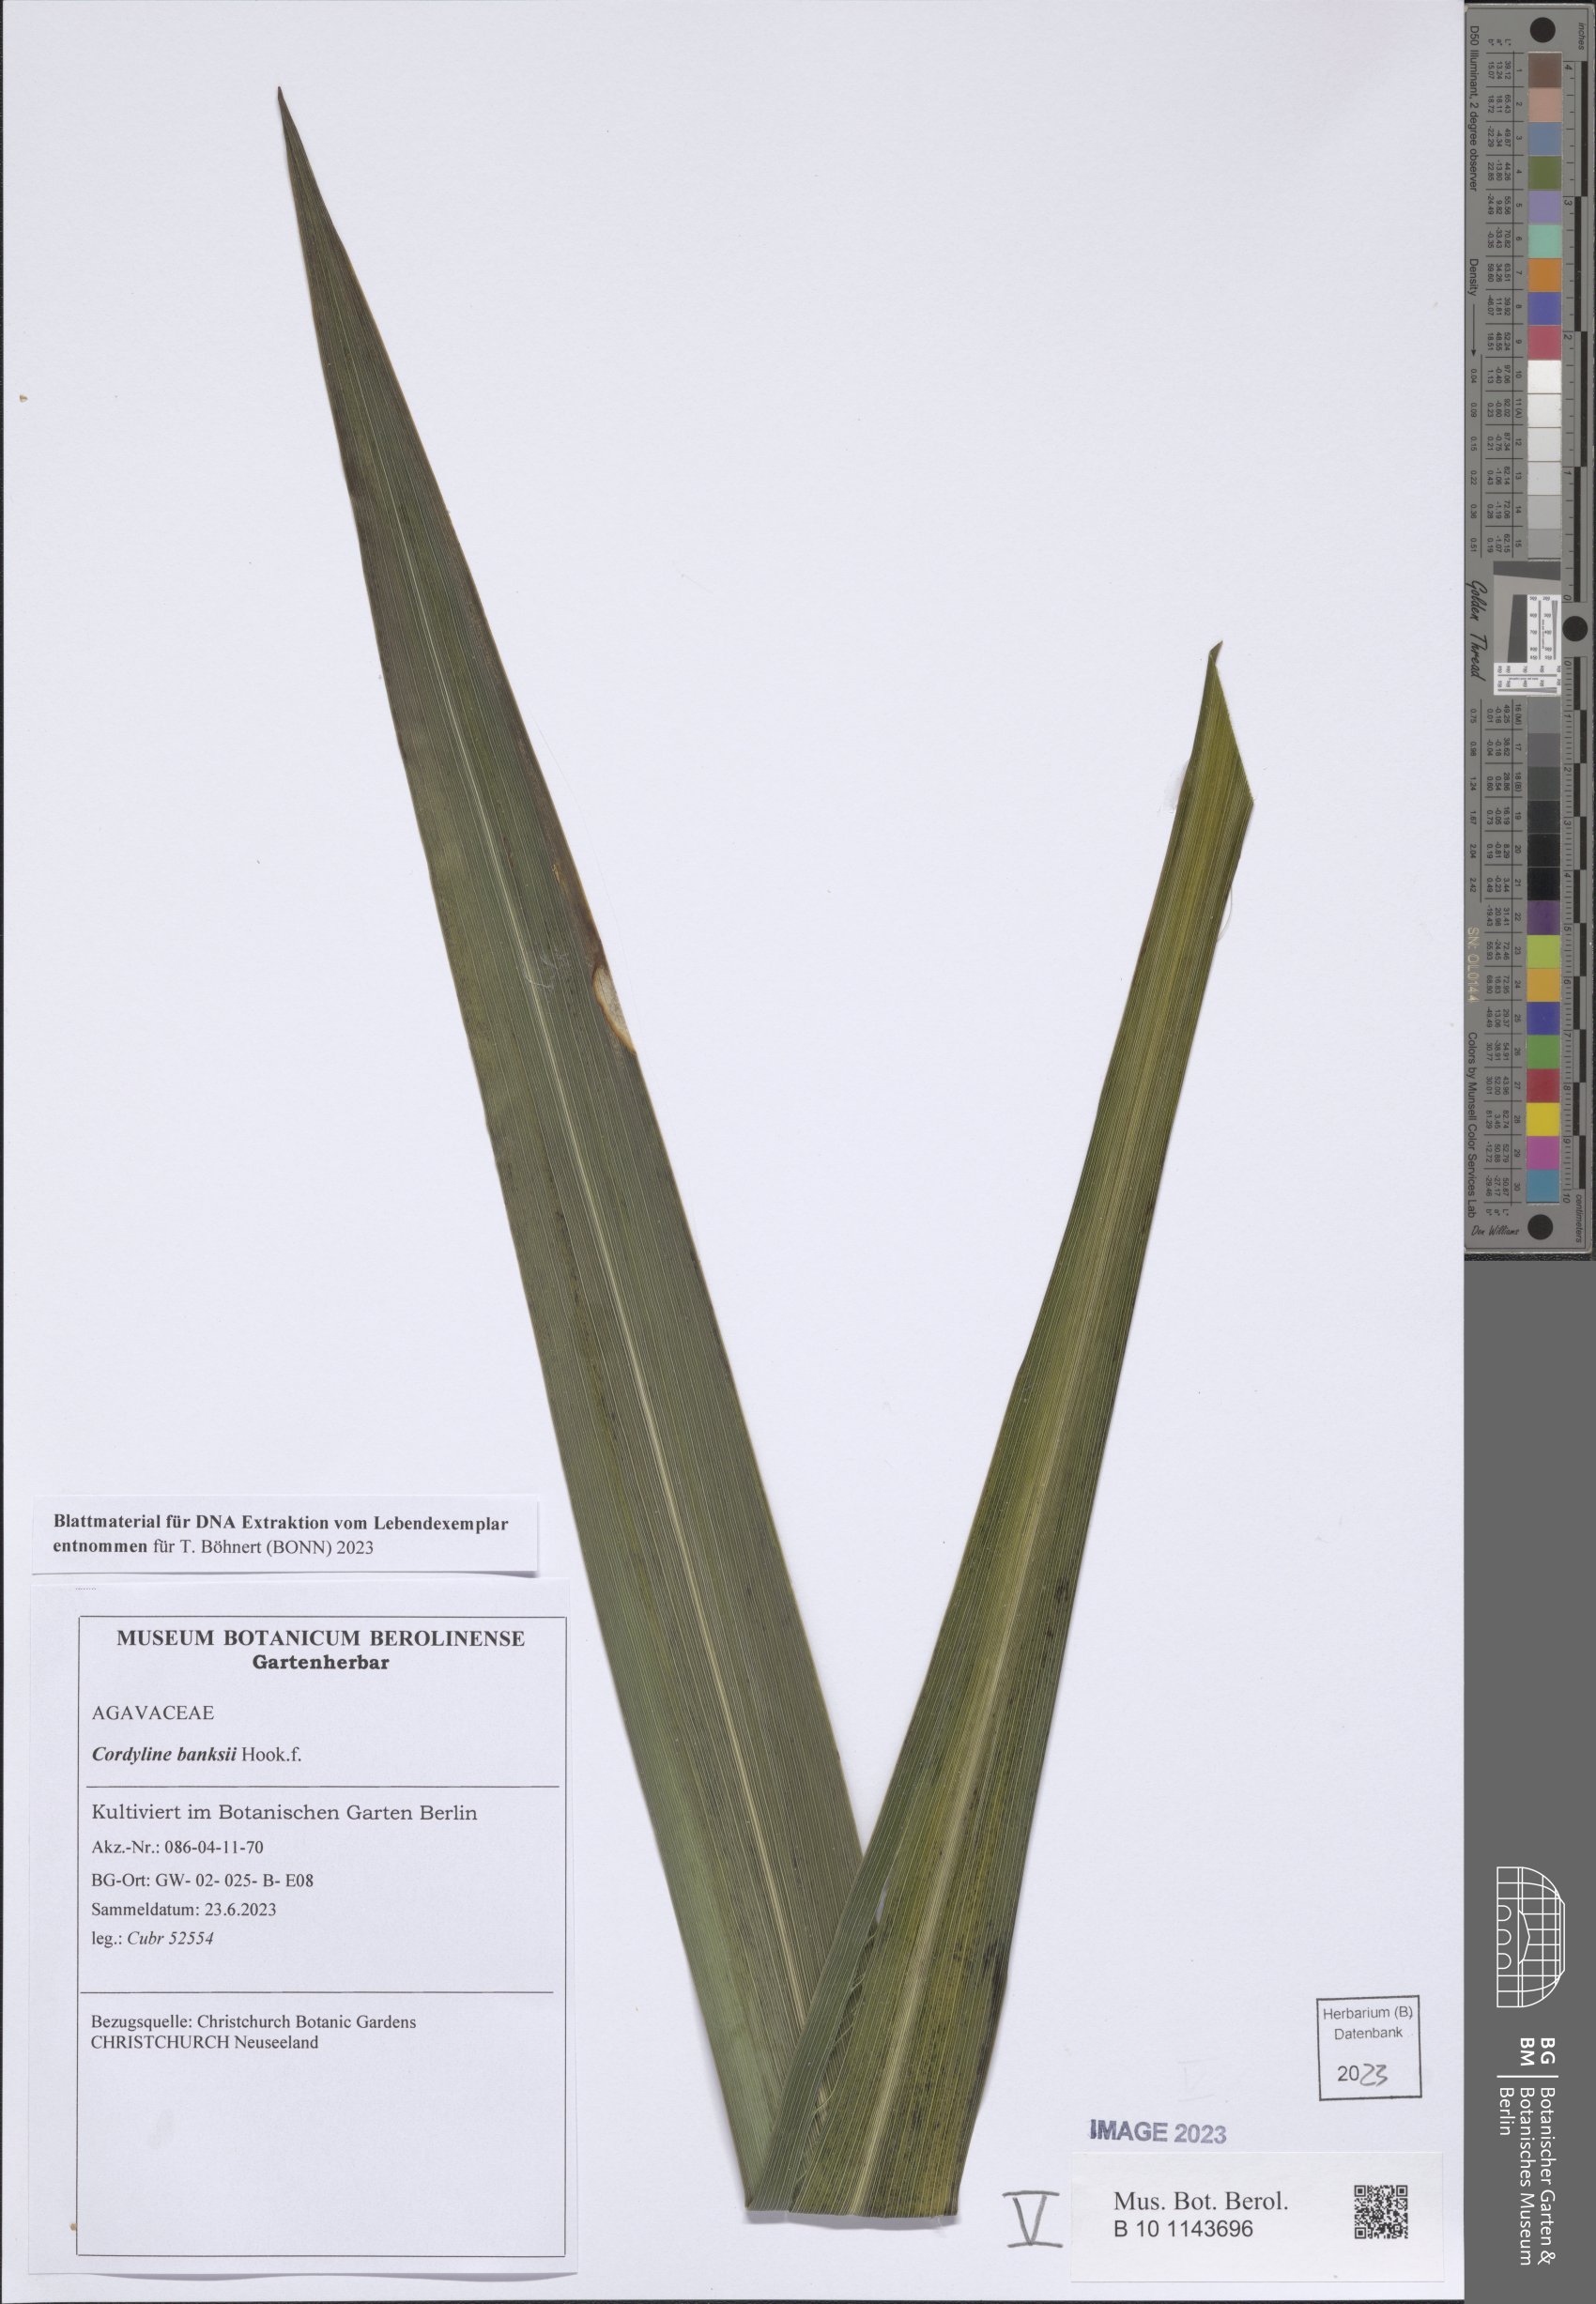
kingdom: Plantae
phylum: Tracheophyta
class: Liliopsida
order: Asparagales
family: Asparagaceae
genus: Cordyline
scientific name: Cordyline banksii
